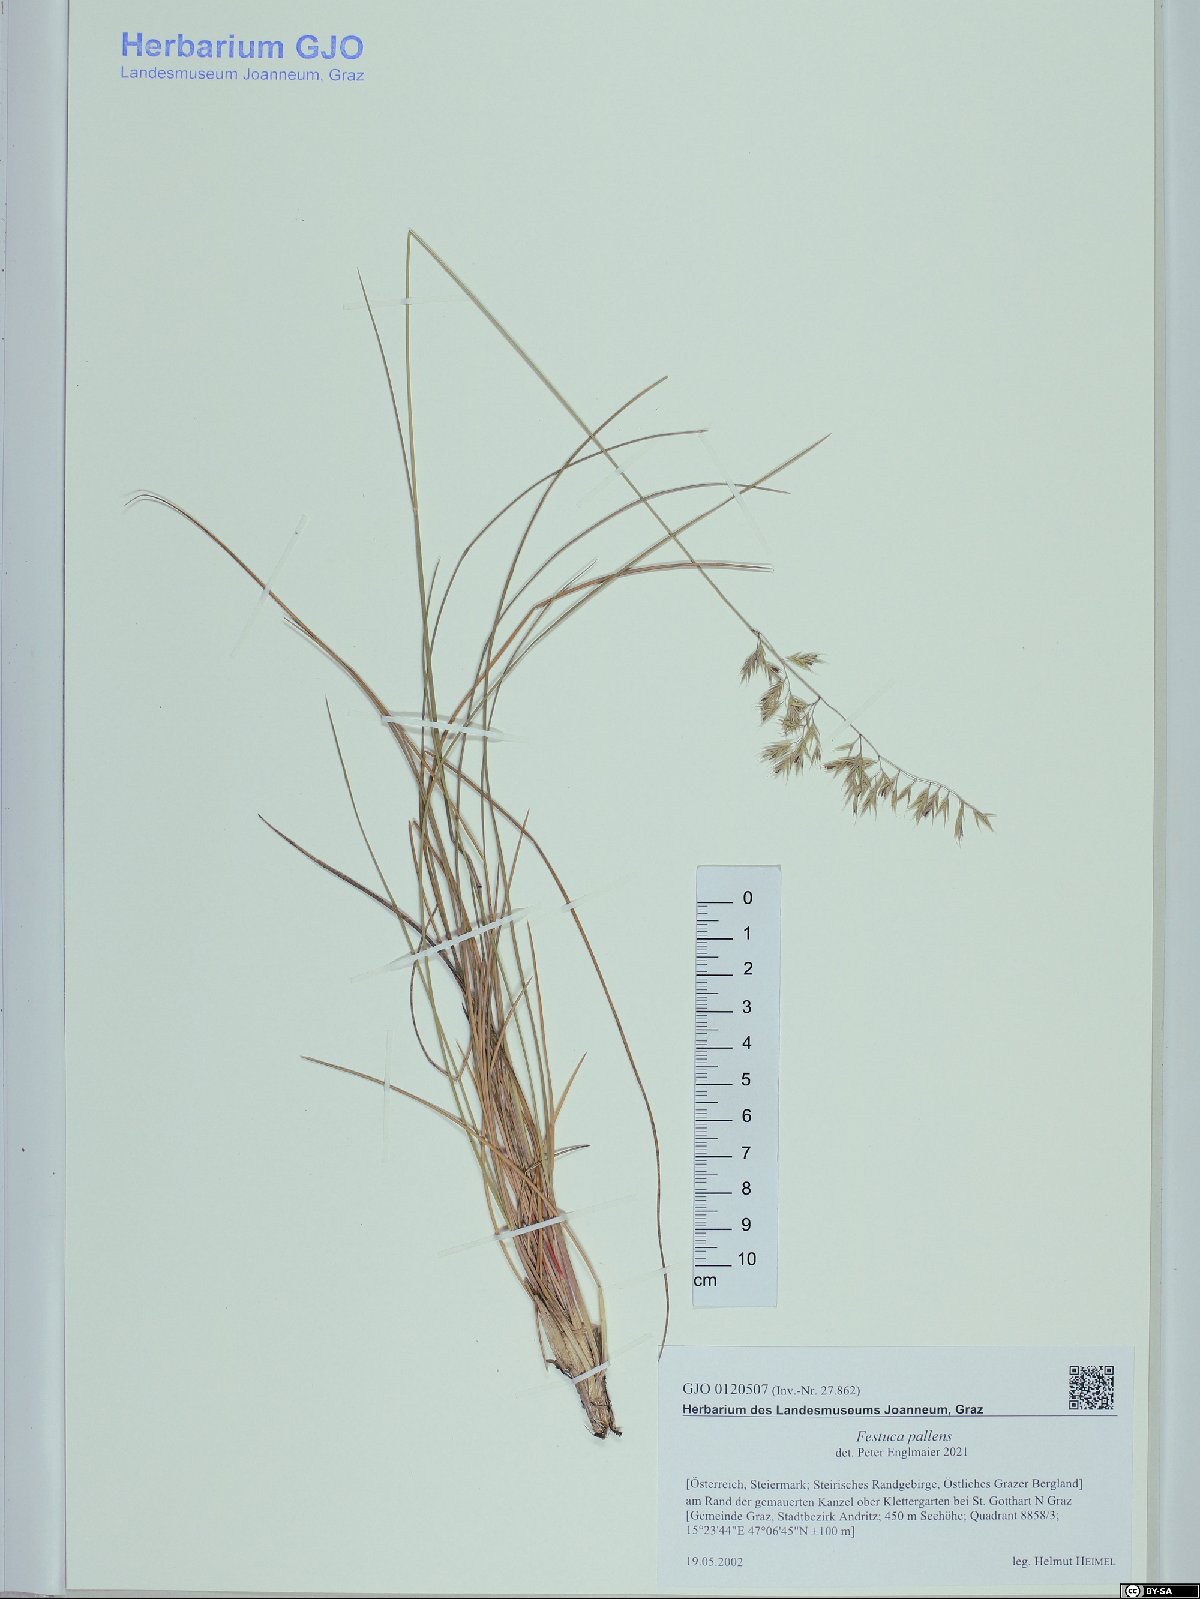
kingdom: Plantae
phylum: Tracheophyta
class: Liliopsida
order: Poales
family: Poaceae
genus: Festuca
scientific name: Festuca pallens
